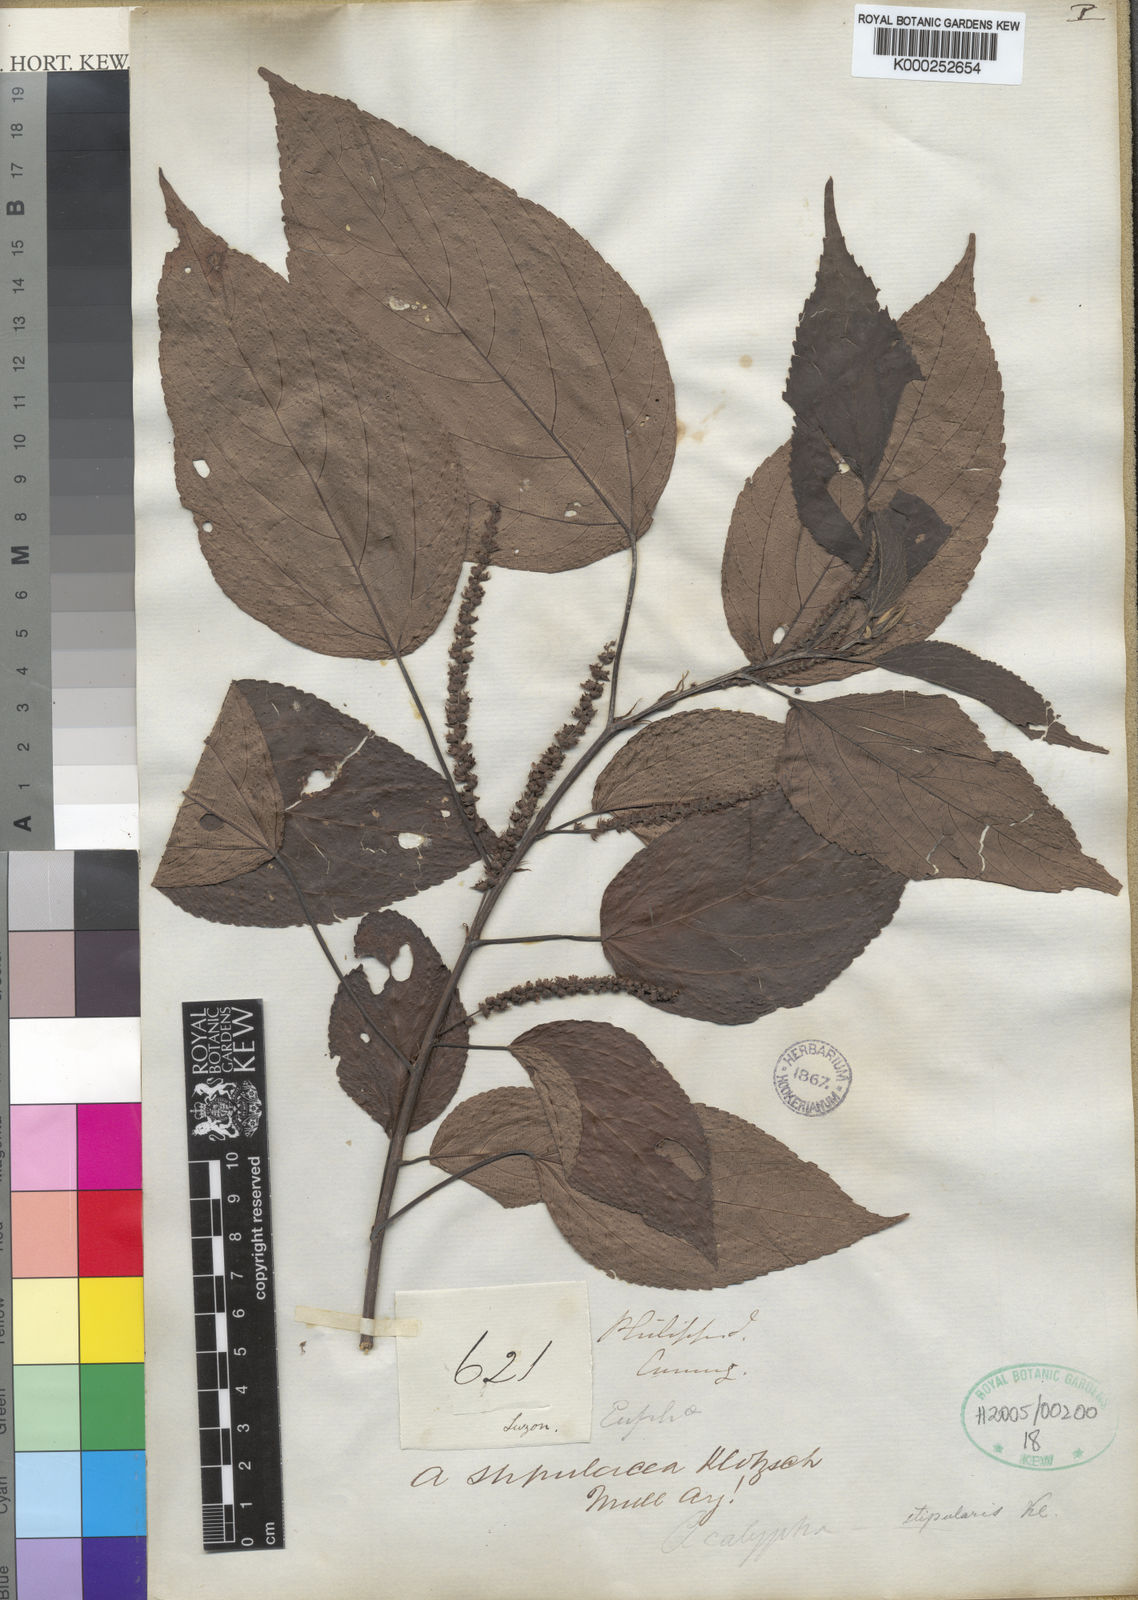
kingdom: Plantae
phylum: Tracheophyta
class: Magnoliopsida
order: Malpighiales
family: Euphorbiaceae
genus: Acalypha
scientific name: Acalypha amentacea
